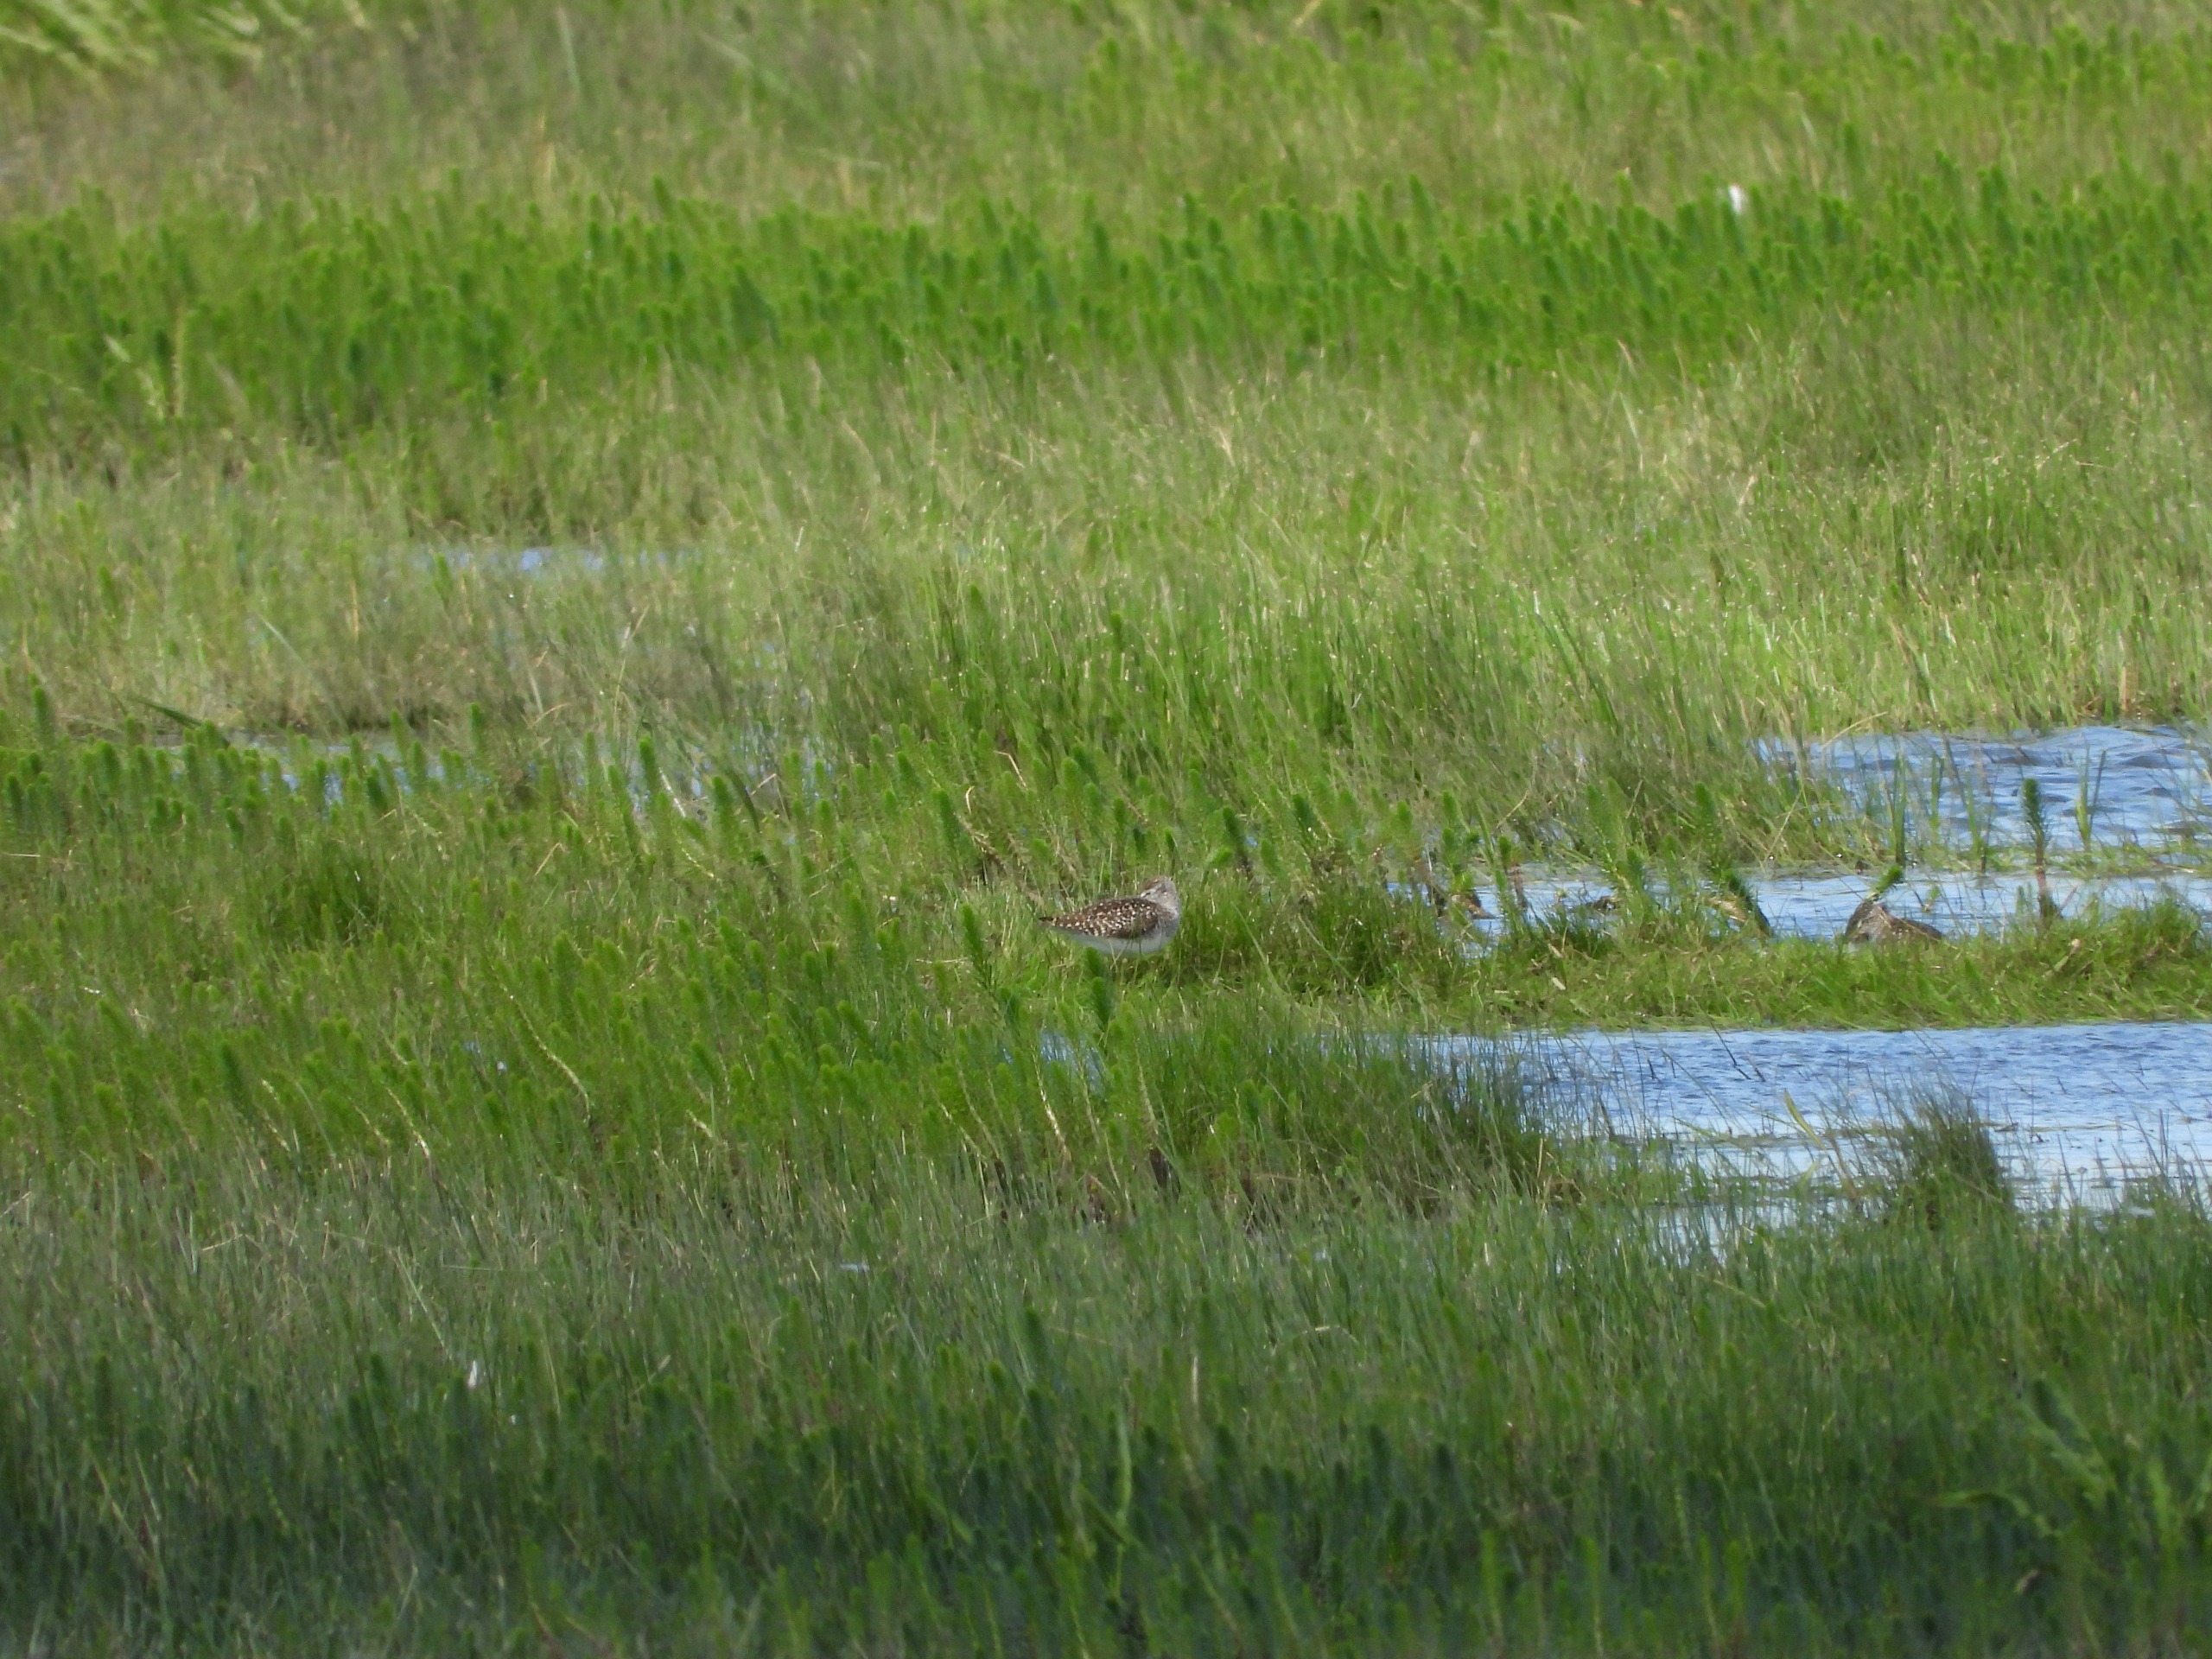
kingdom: Animalia
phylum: Chordata
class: Aves
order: Charadriiformes
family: Scolopacidae
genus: Tringa
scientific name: Tringa glareola
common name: Tinksmed
